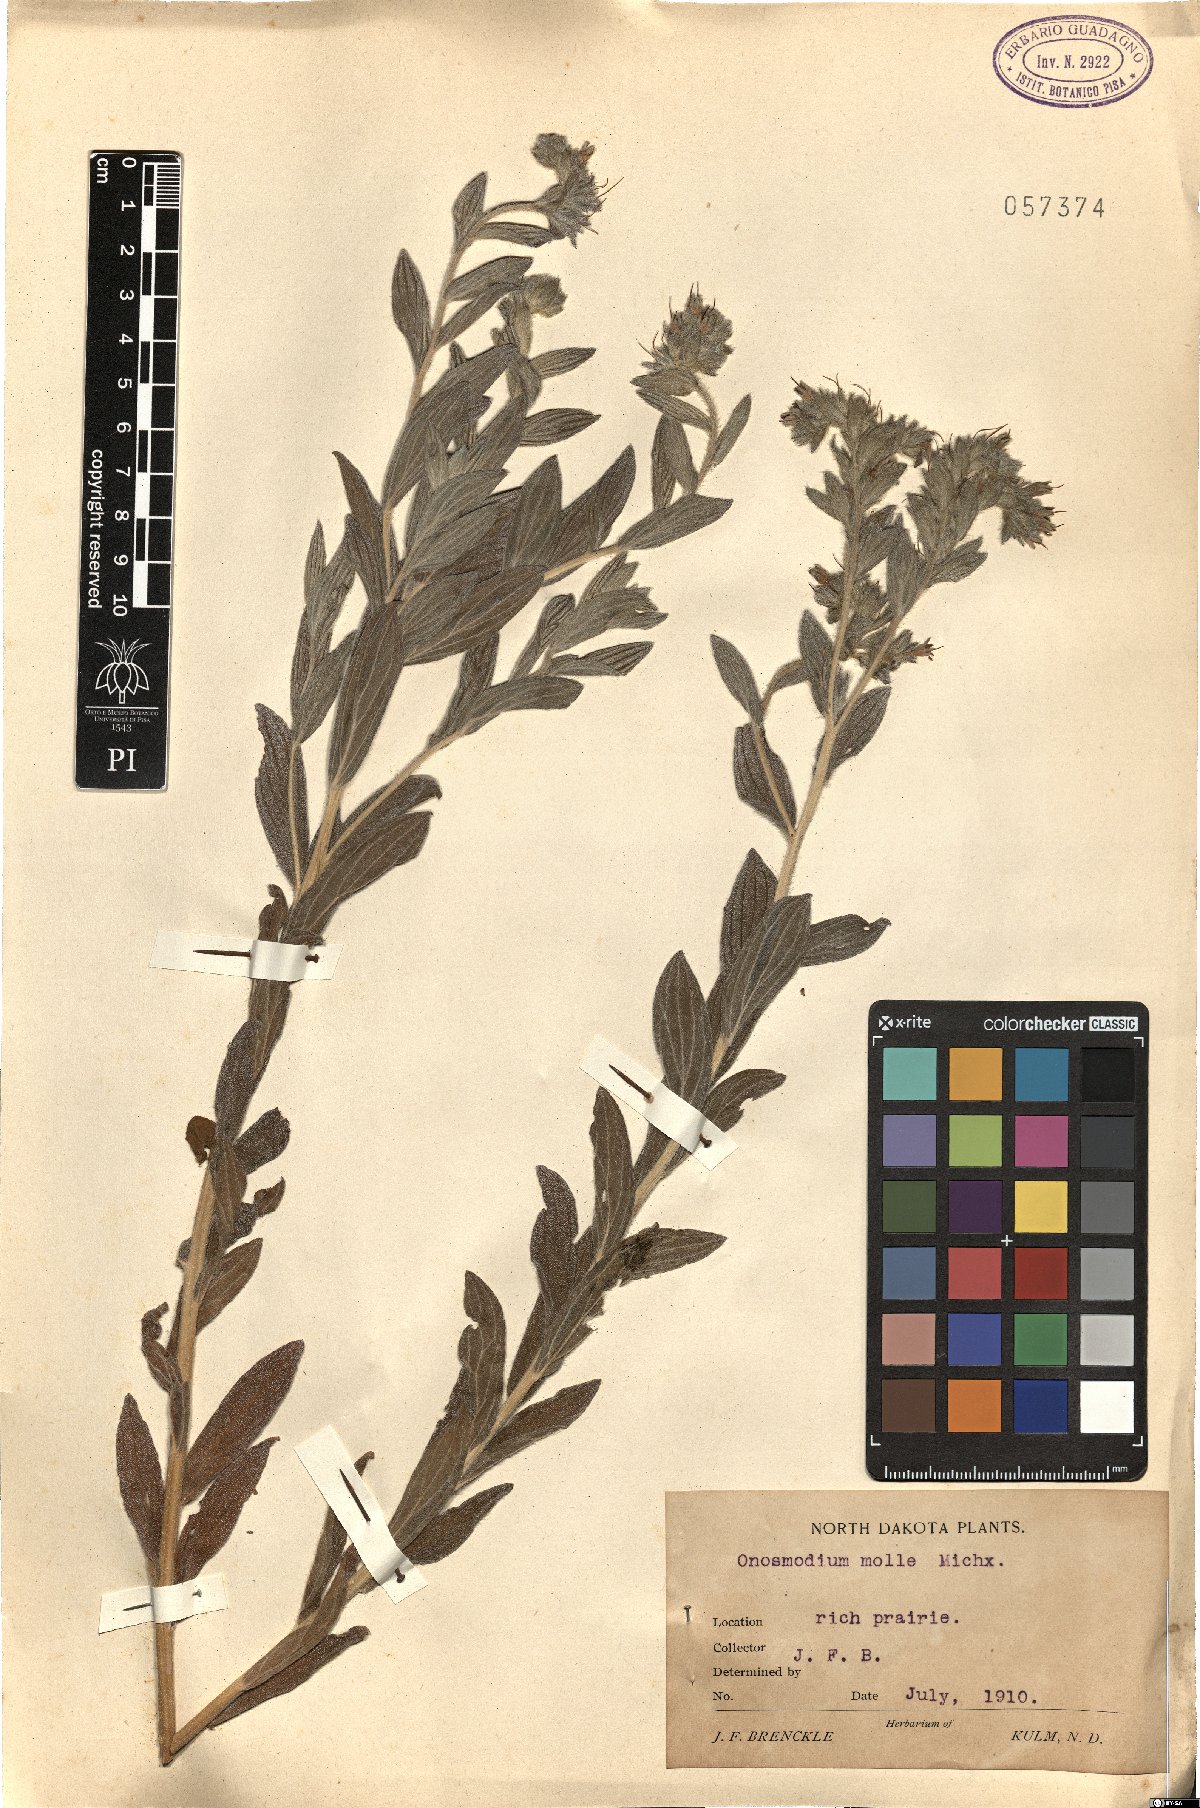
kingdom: Plantae
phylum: Tracheophyta
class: Magnoliopsida
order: Boraginales
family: Boraginaceae
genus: Lithospermum
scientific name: Lithospermum molle
